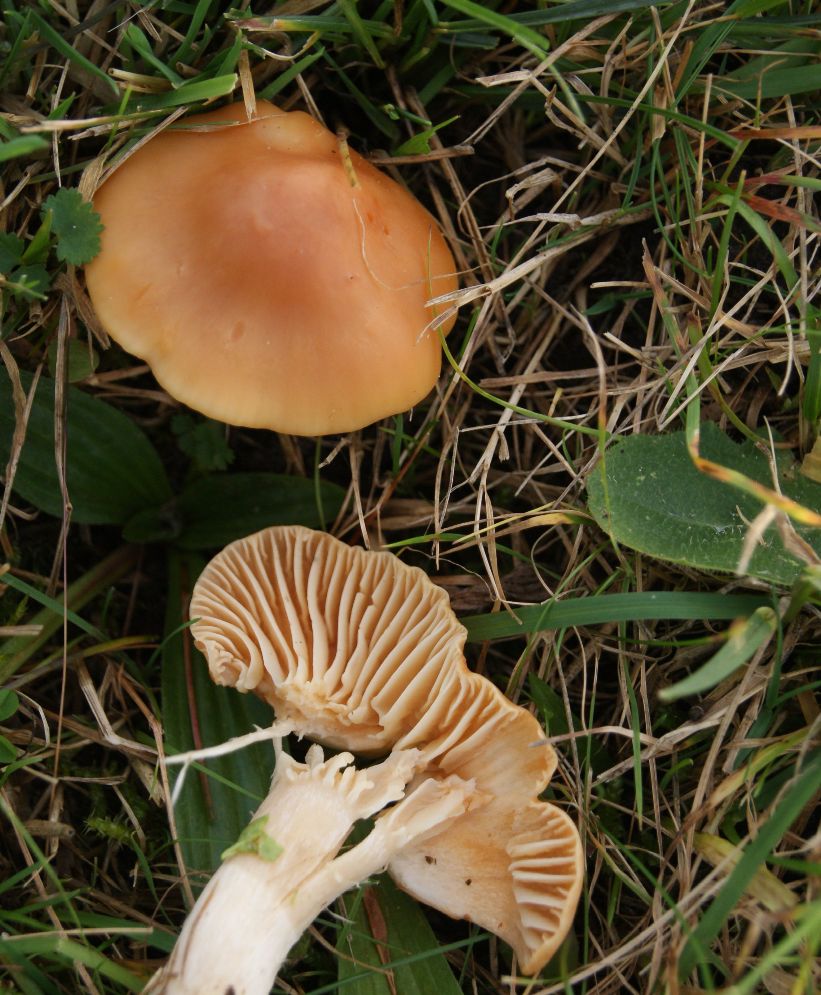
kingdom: Fungi
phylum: Basidiomycota
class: Agaricomycetes
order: Agaricales
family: Hygrophoraceae
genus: Cuphophyllus
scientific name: Cuphophyllus pratensis
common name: eng-vokshat
